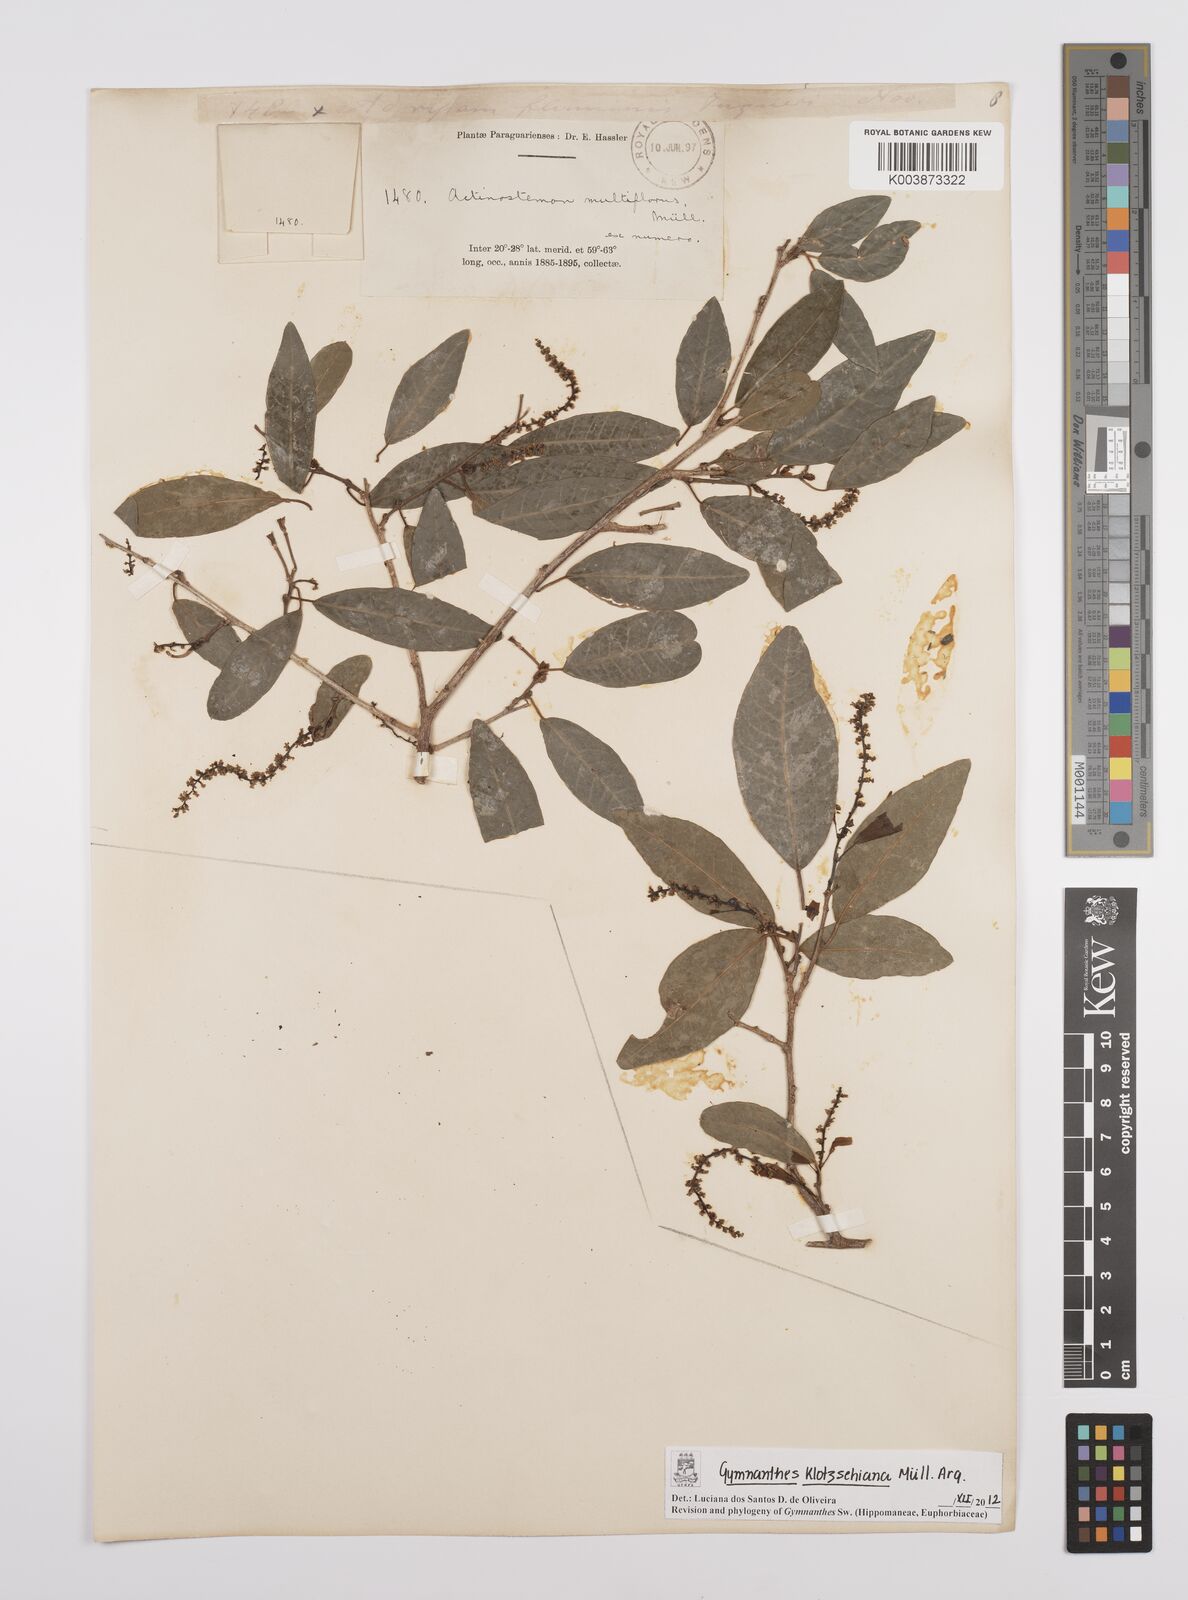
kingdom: Plantae
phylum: Tracheophyta
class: Magnoliopsida
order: Malpighiales
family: Euphorbiaceae
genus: Sebastiania
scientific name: Sebastiania klotzschiana
